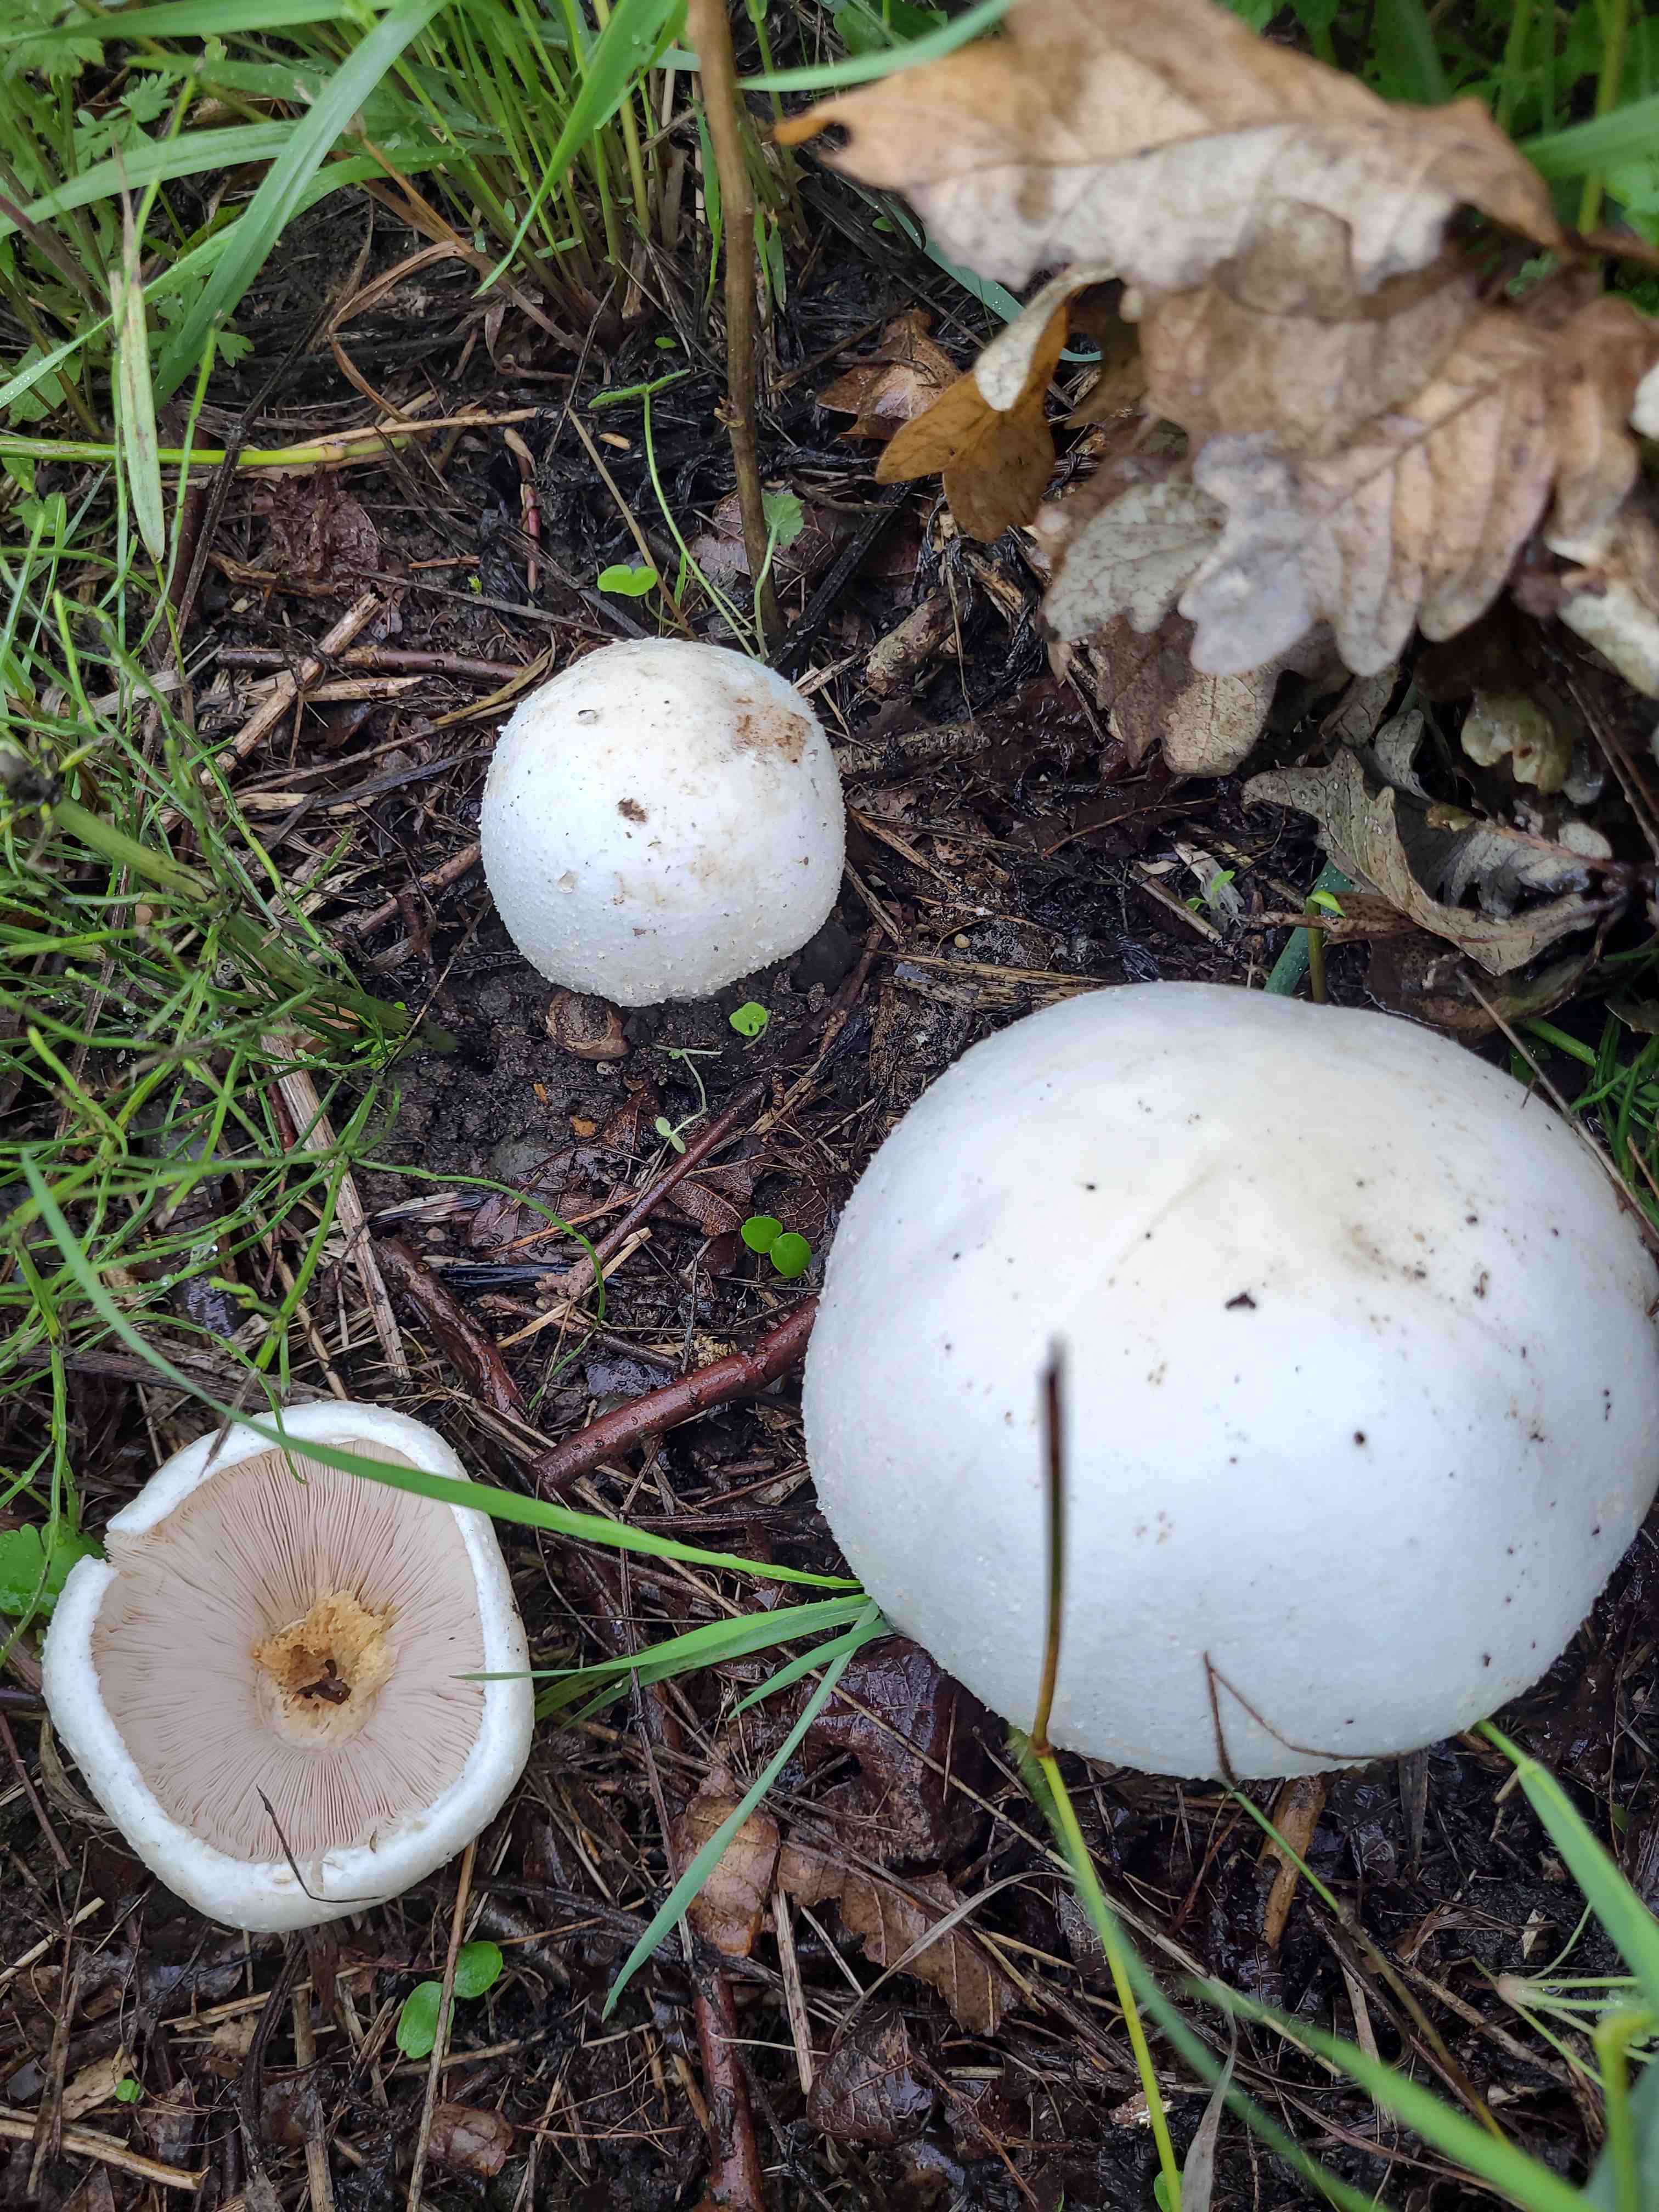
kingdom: Fungi
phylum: Basidiomycota
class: Agaricomycetes
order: Agaricales
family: Agaricaceae
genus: Agaricus
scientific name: Agaricus
